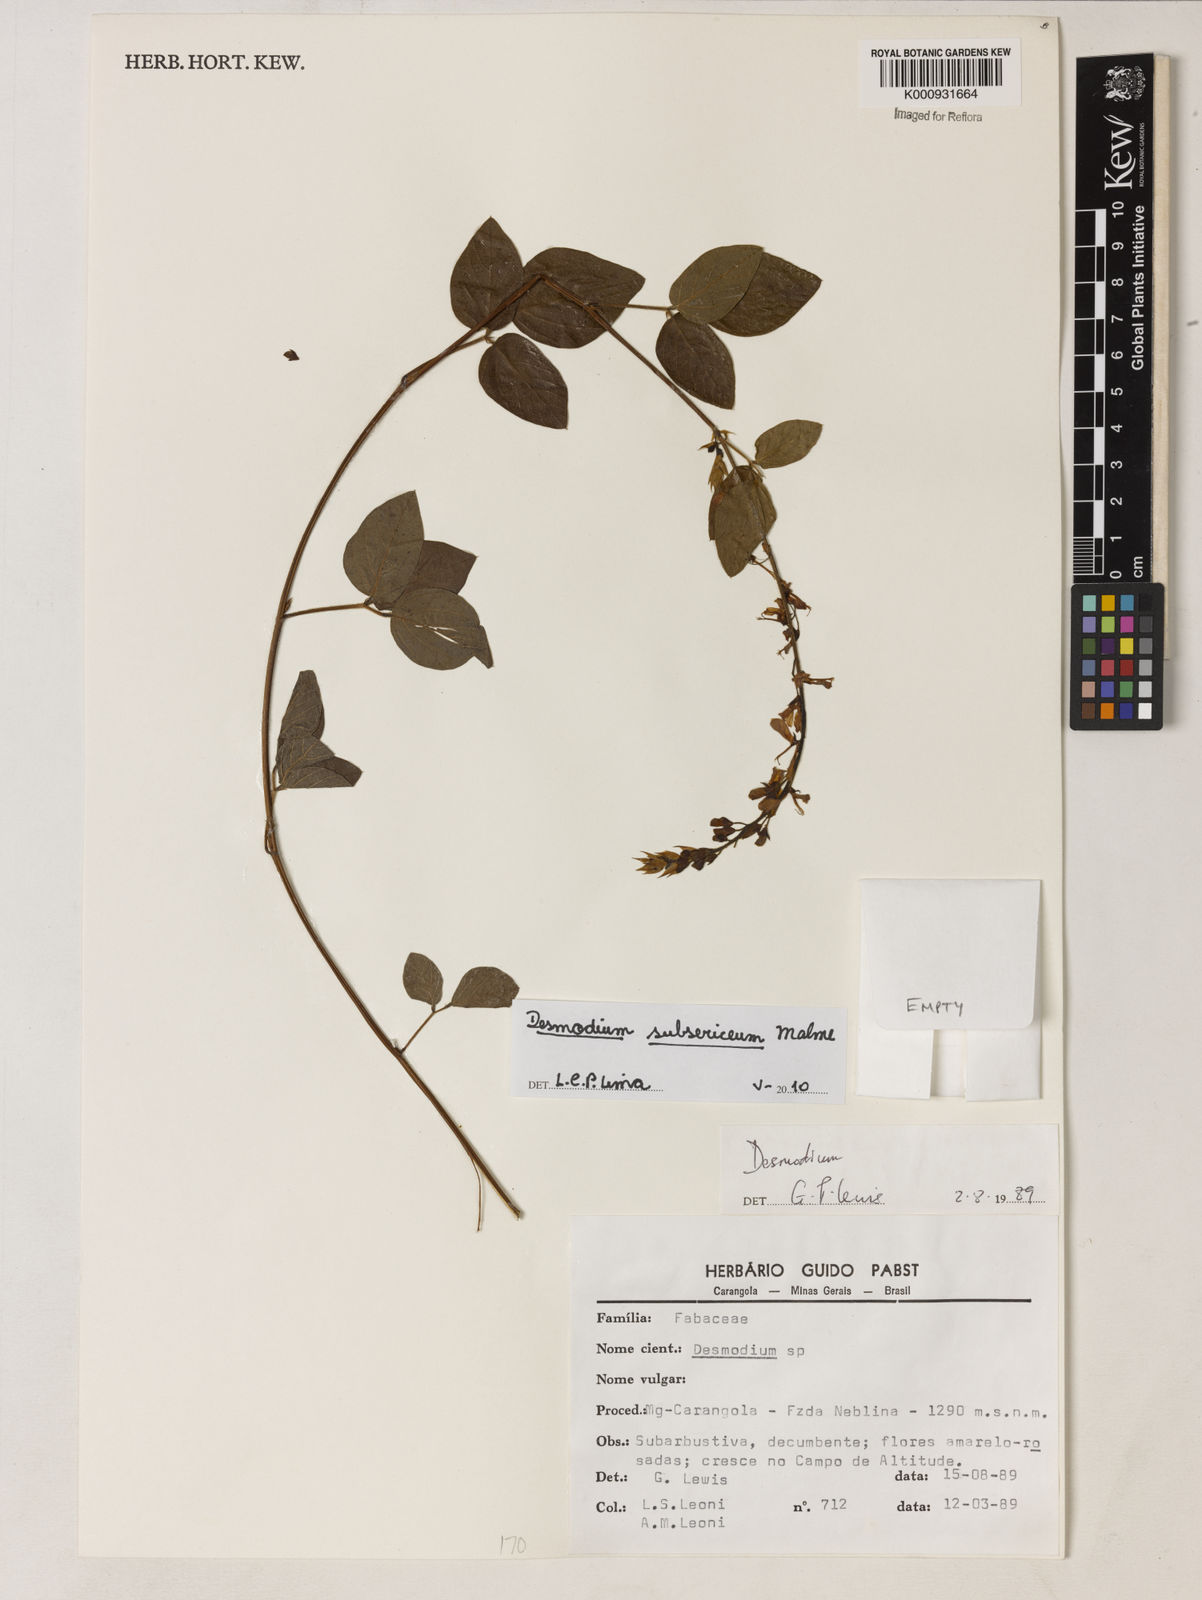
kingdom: Plantae
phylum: Tracheophyta
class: Magnoliopsida
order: Fabales
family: Fabaceae
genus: Desmodium
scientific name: Desmodium subsericeum
